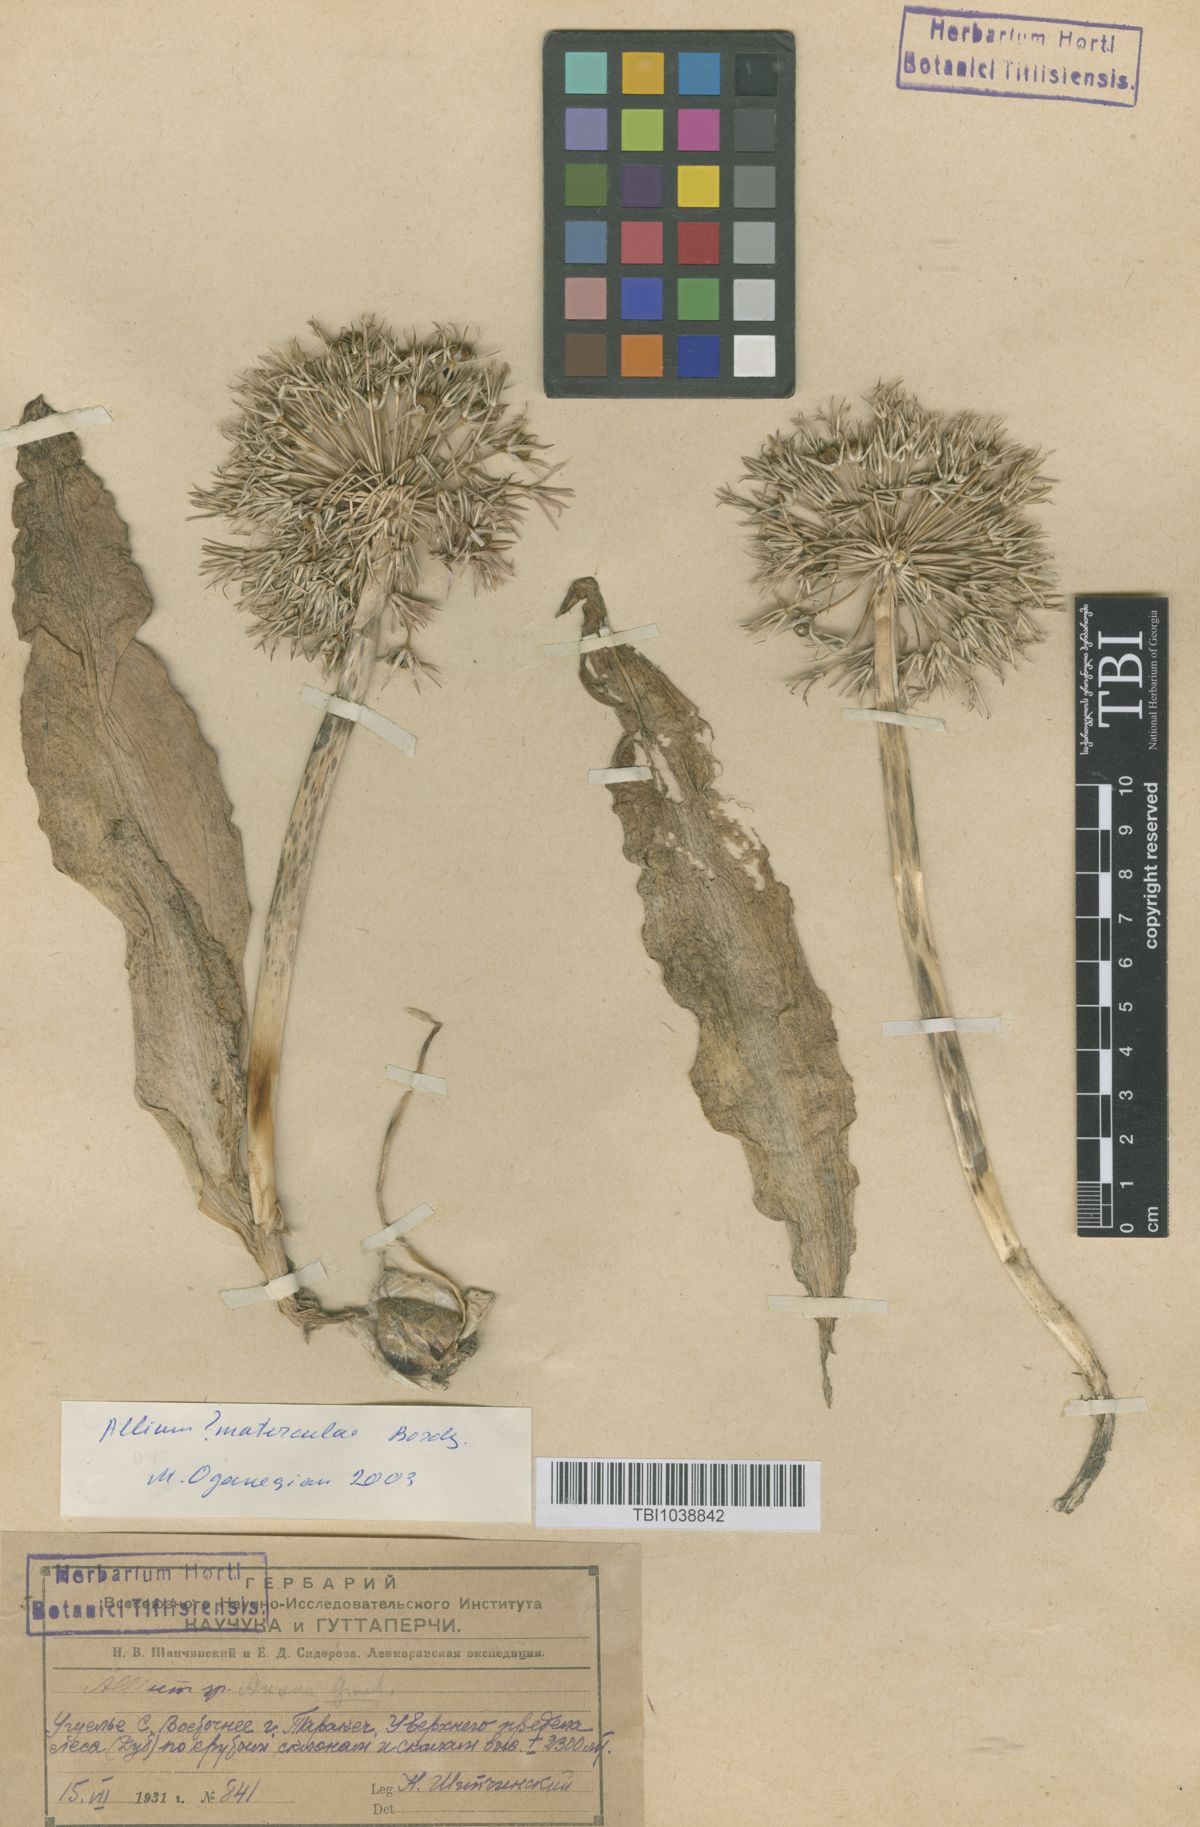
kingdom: Plantae
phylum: Tracheophyta
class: Liliopsida
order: Asparagales
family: Amaryllidaceae
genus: Allium
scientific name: Allium materculae
